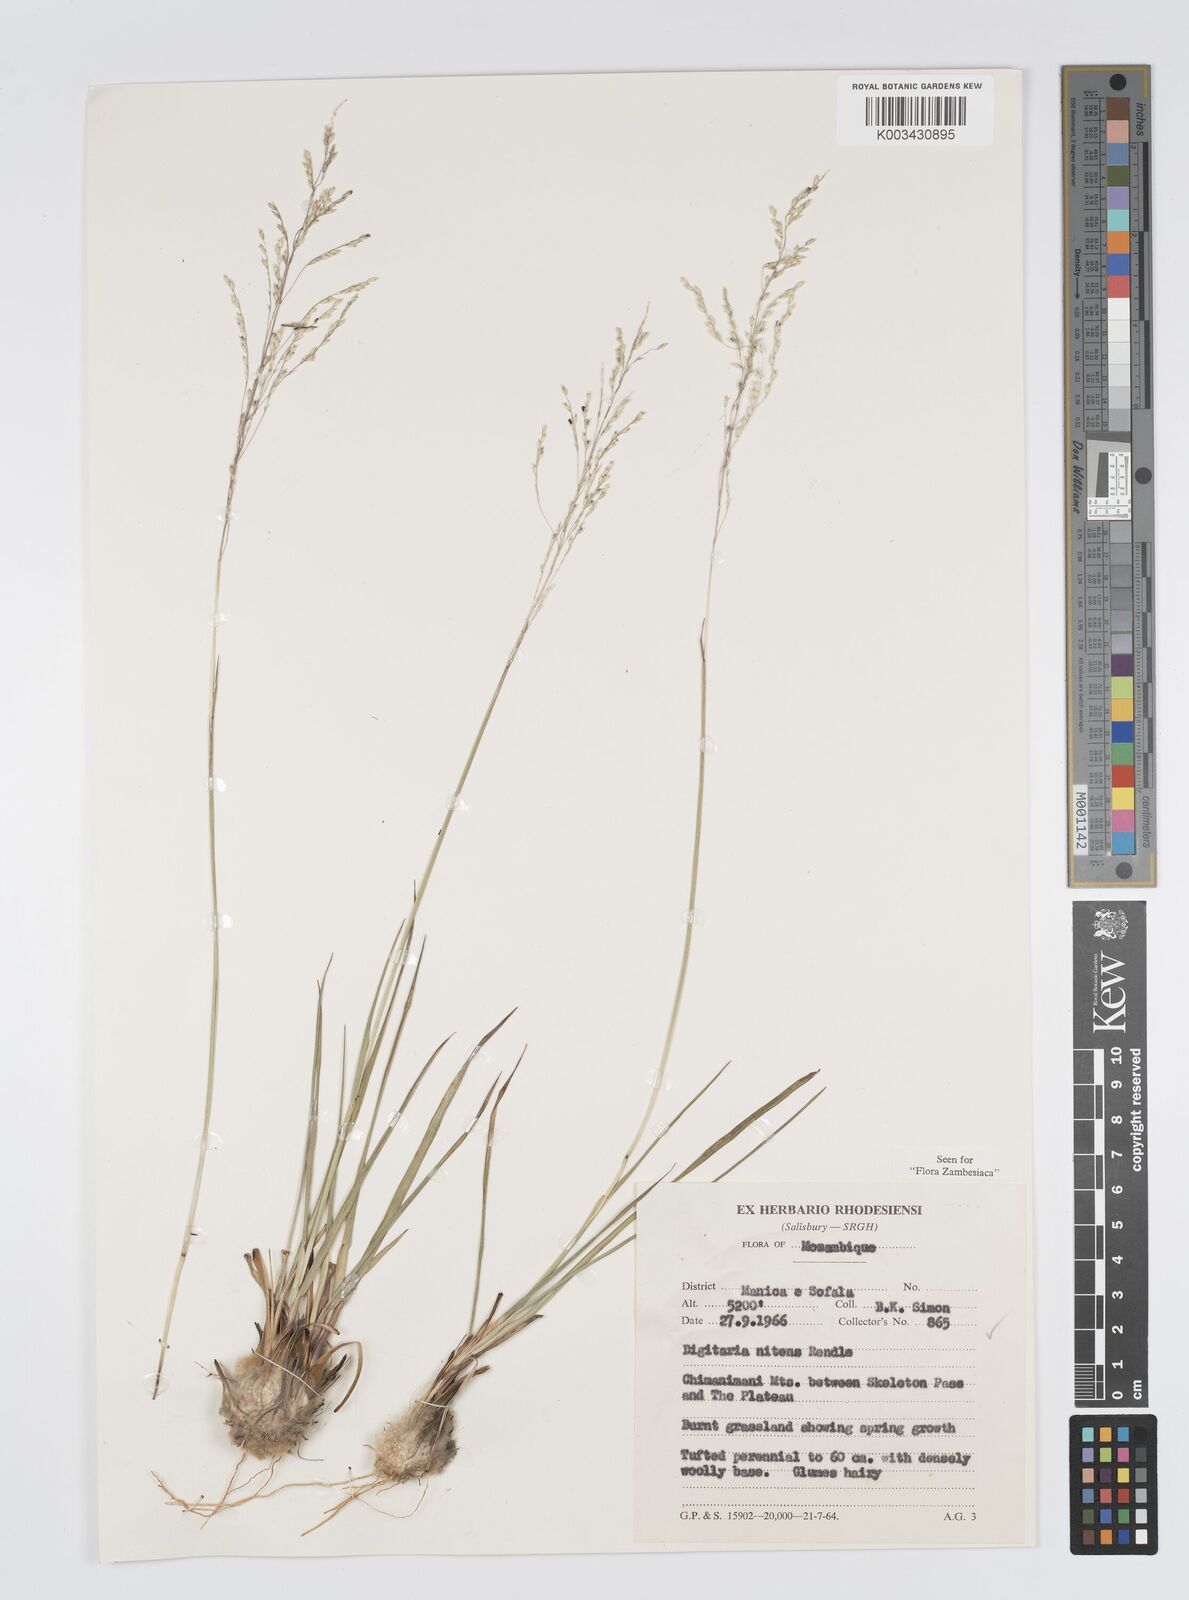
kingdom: Plantae
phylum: Tracheophyta
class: Liliopsida
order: Poales
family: Poaceae
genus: Digitaria
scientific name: Digitaria flaccida
